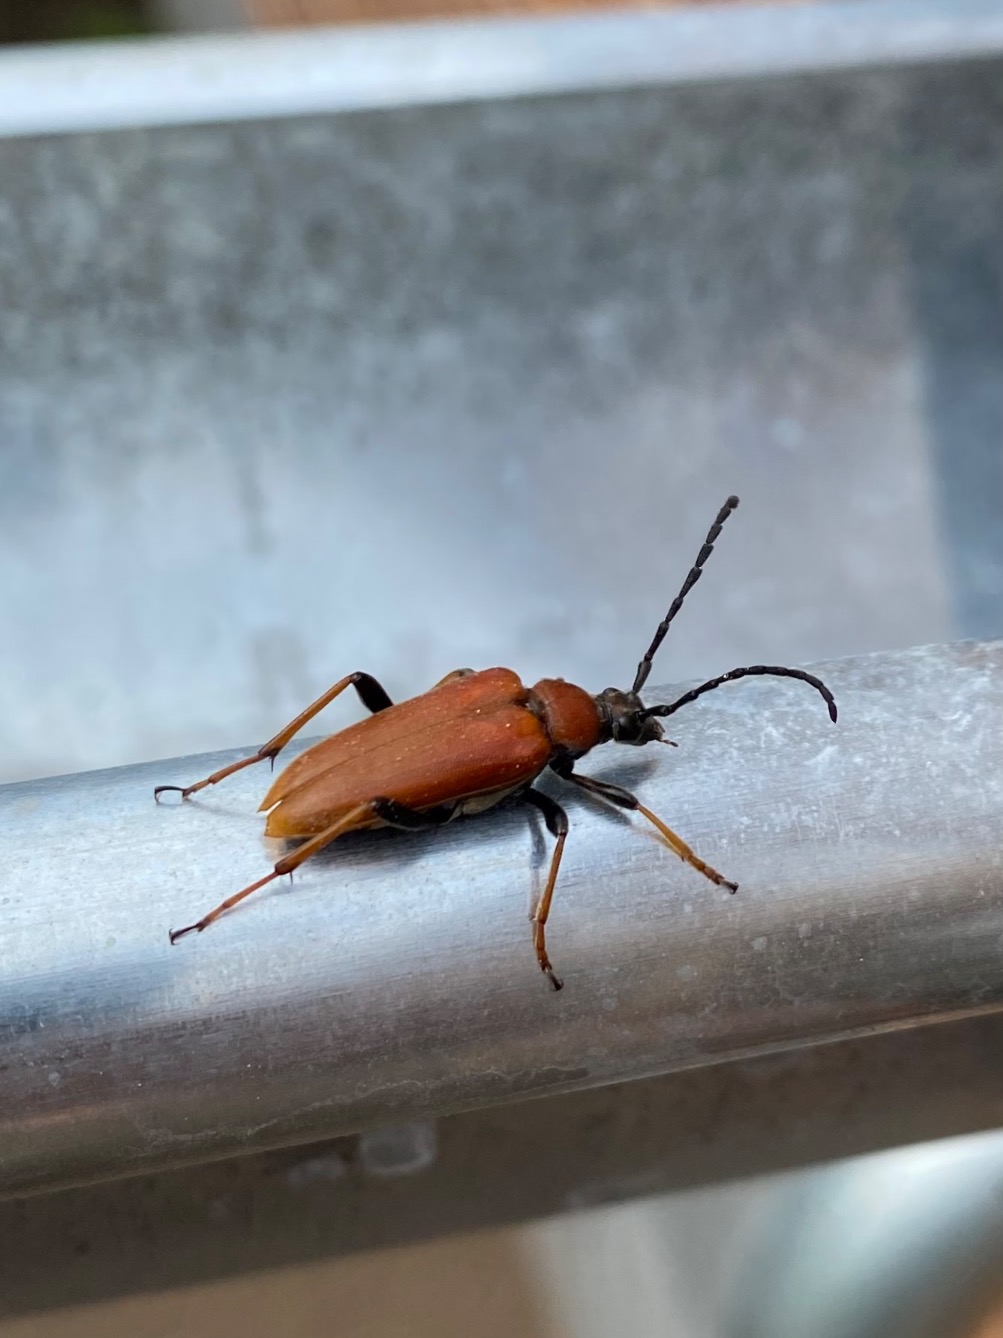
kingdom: Animalia
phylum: Arthropoda
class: Insecta
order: Coleoptera
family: Cerambycidae
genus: Stictoleptura
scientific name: Stictoleptura rubra
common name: Rød blomsterbuk
